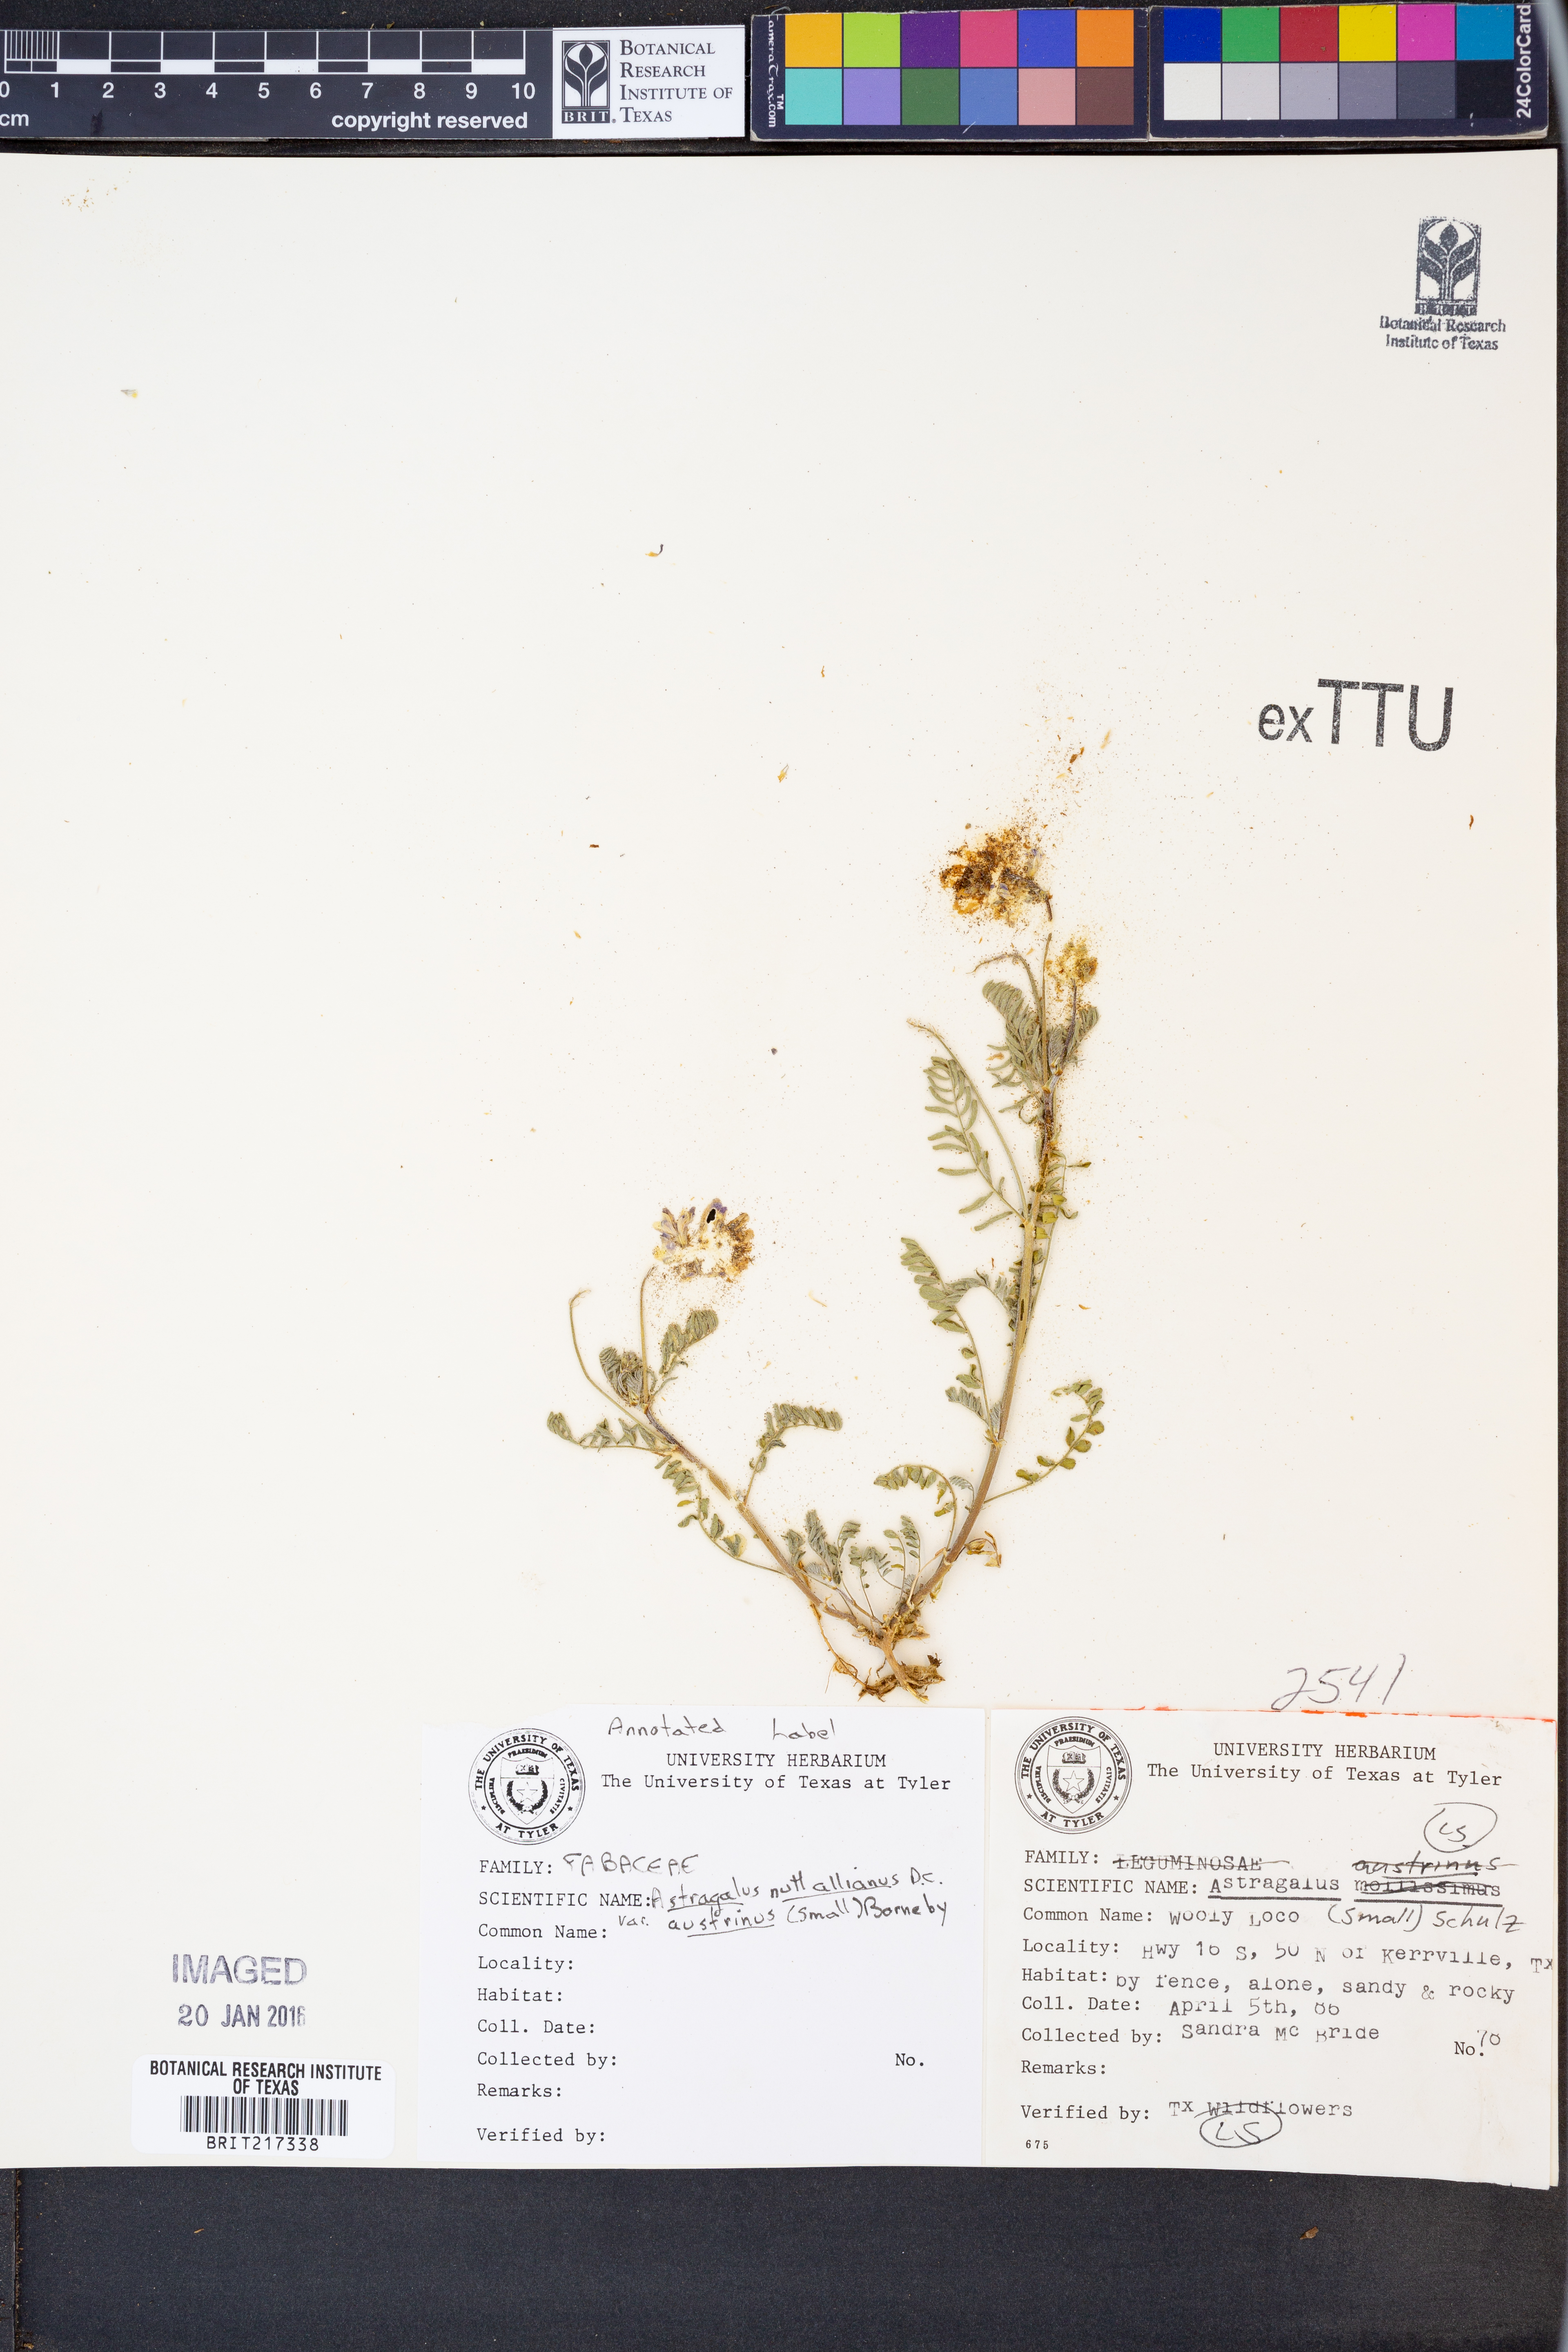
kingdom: Plantae
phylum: Tracheophyta
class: Magnoliopsida
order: Fabales
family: Fabaceae
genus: Astragalus
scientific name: Astragalus nuttallianus
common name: Smallflowered milkvetch
